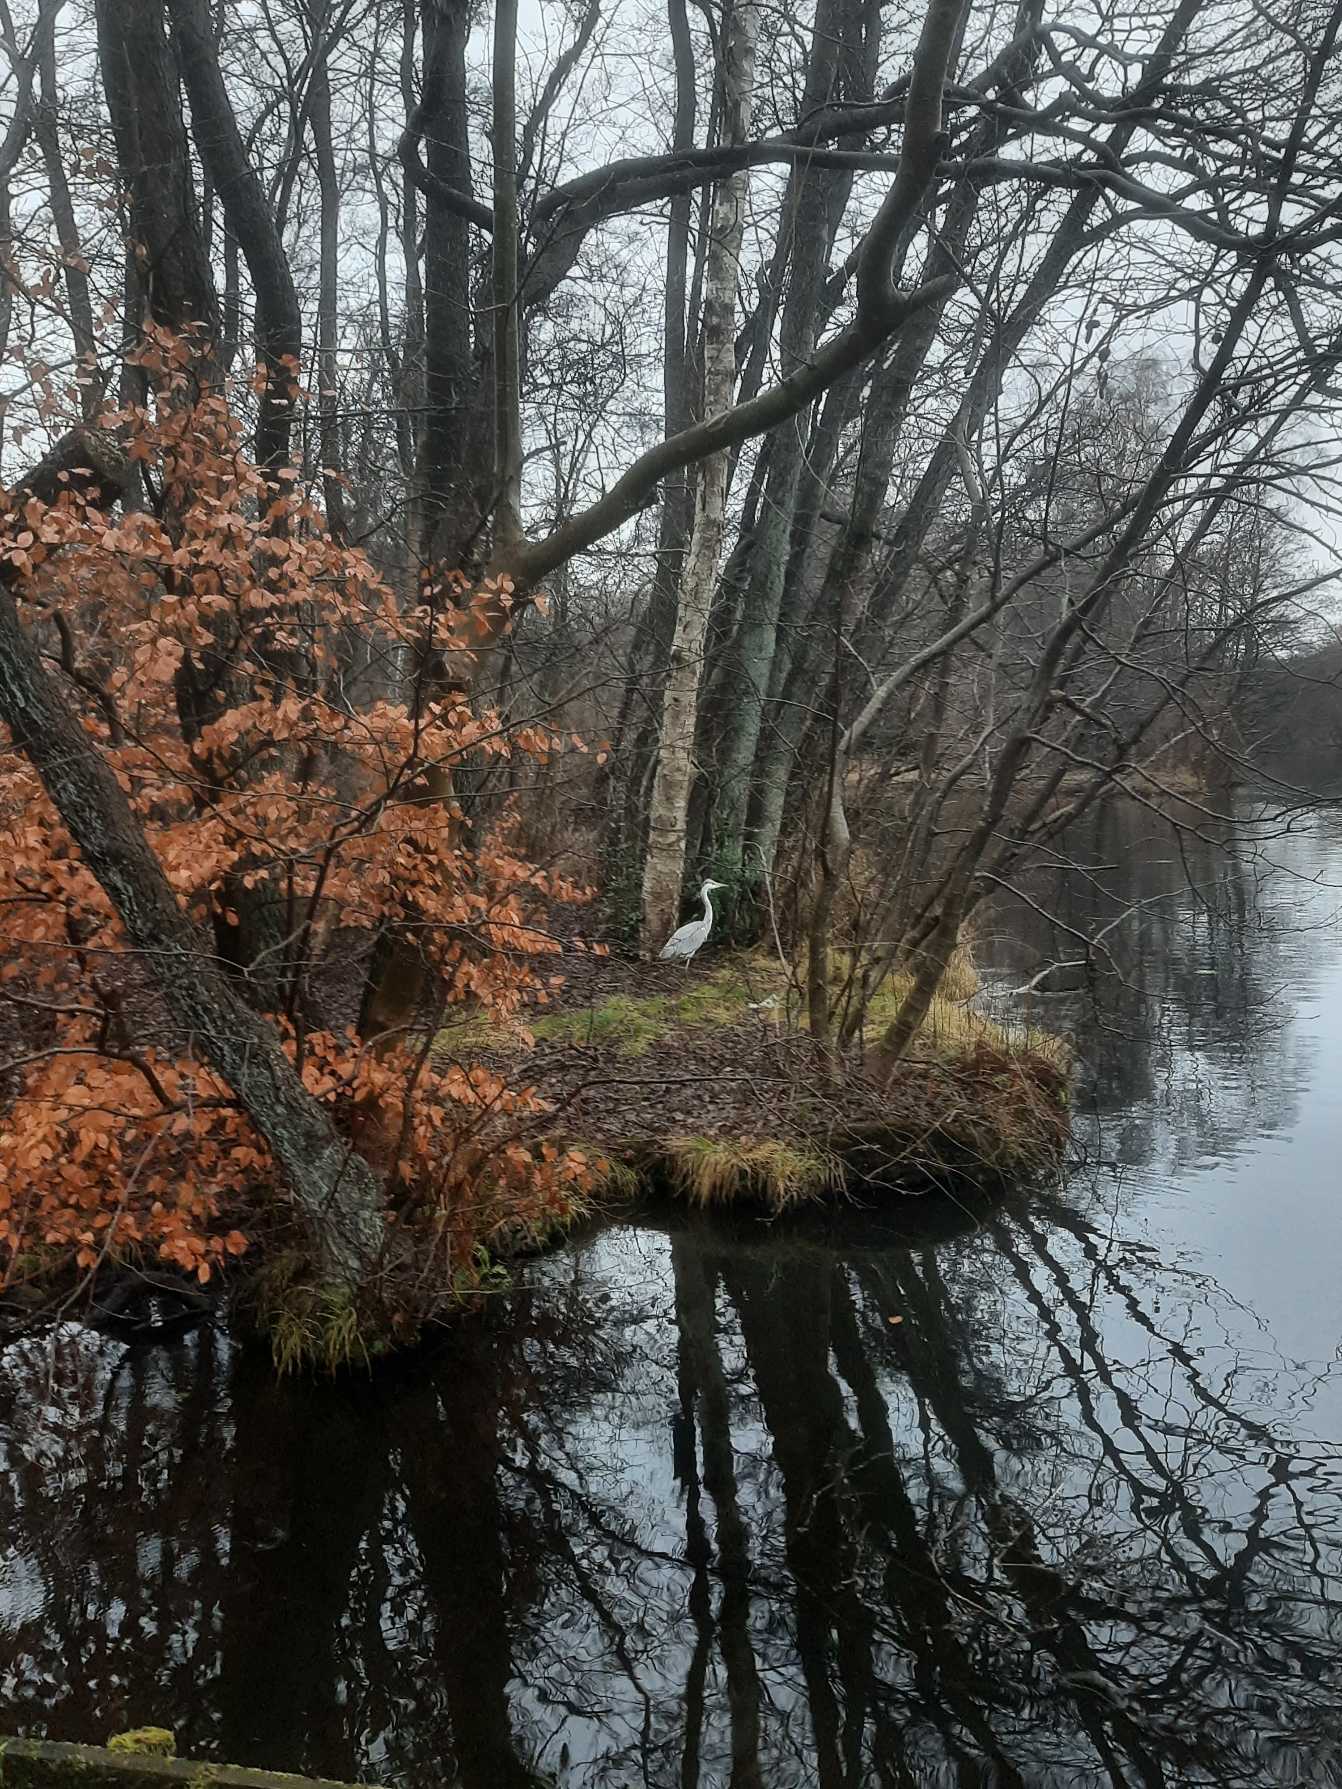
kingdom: Animalia
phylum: Chordata
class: Aves
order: Pelecaniformes
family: Ardeidae
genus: Ardea
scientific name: Ardea cinerea
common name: Fiskehejre
